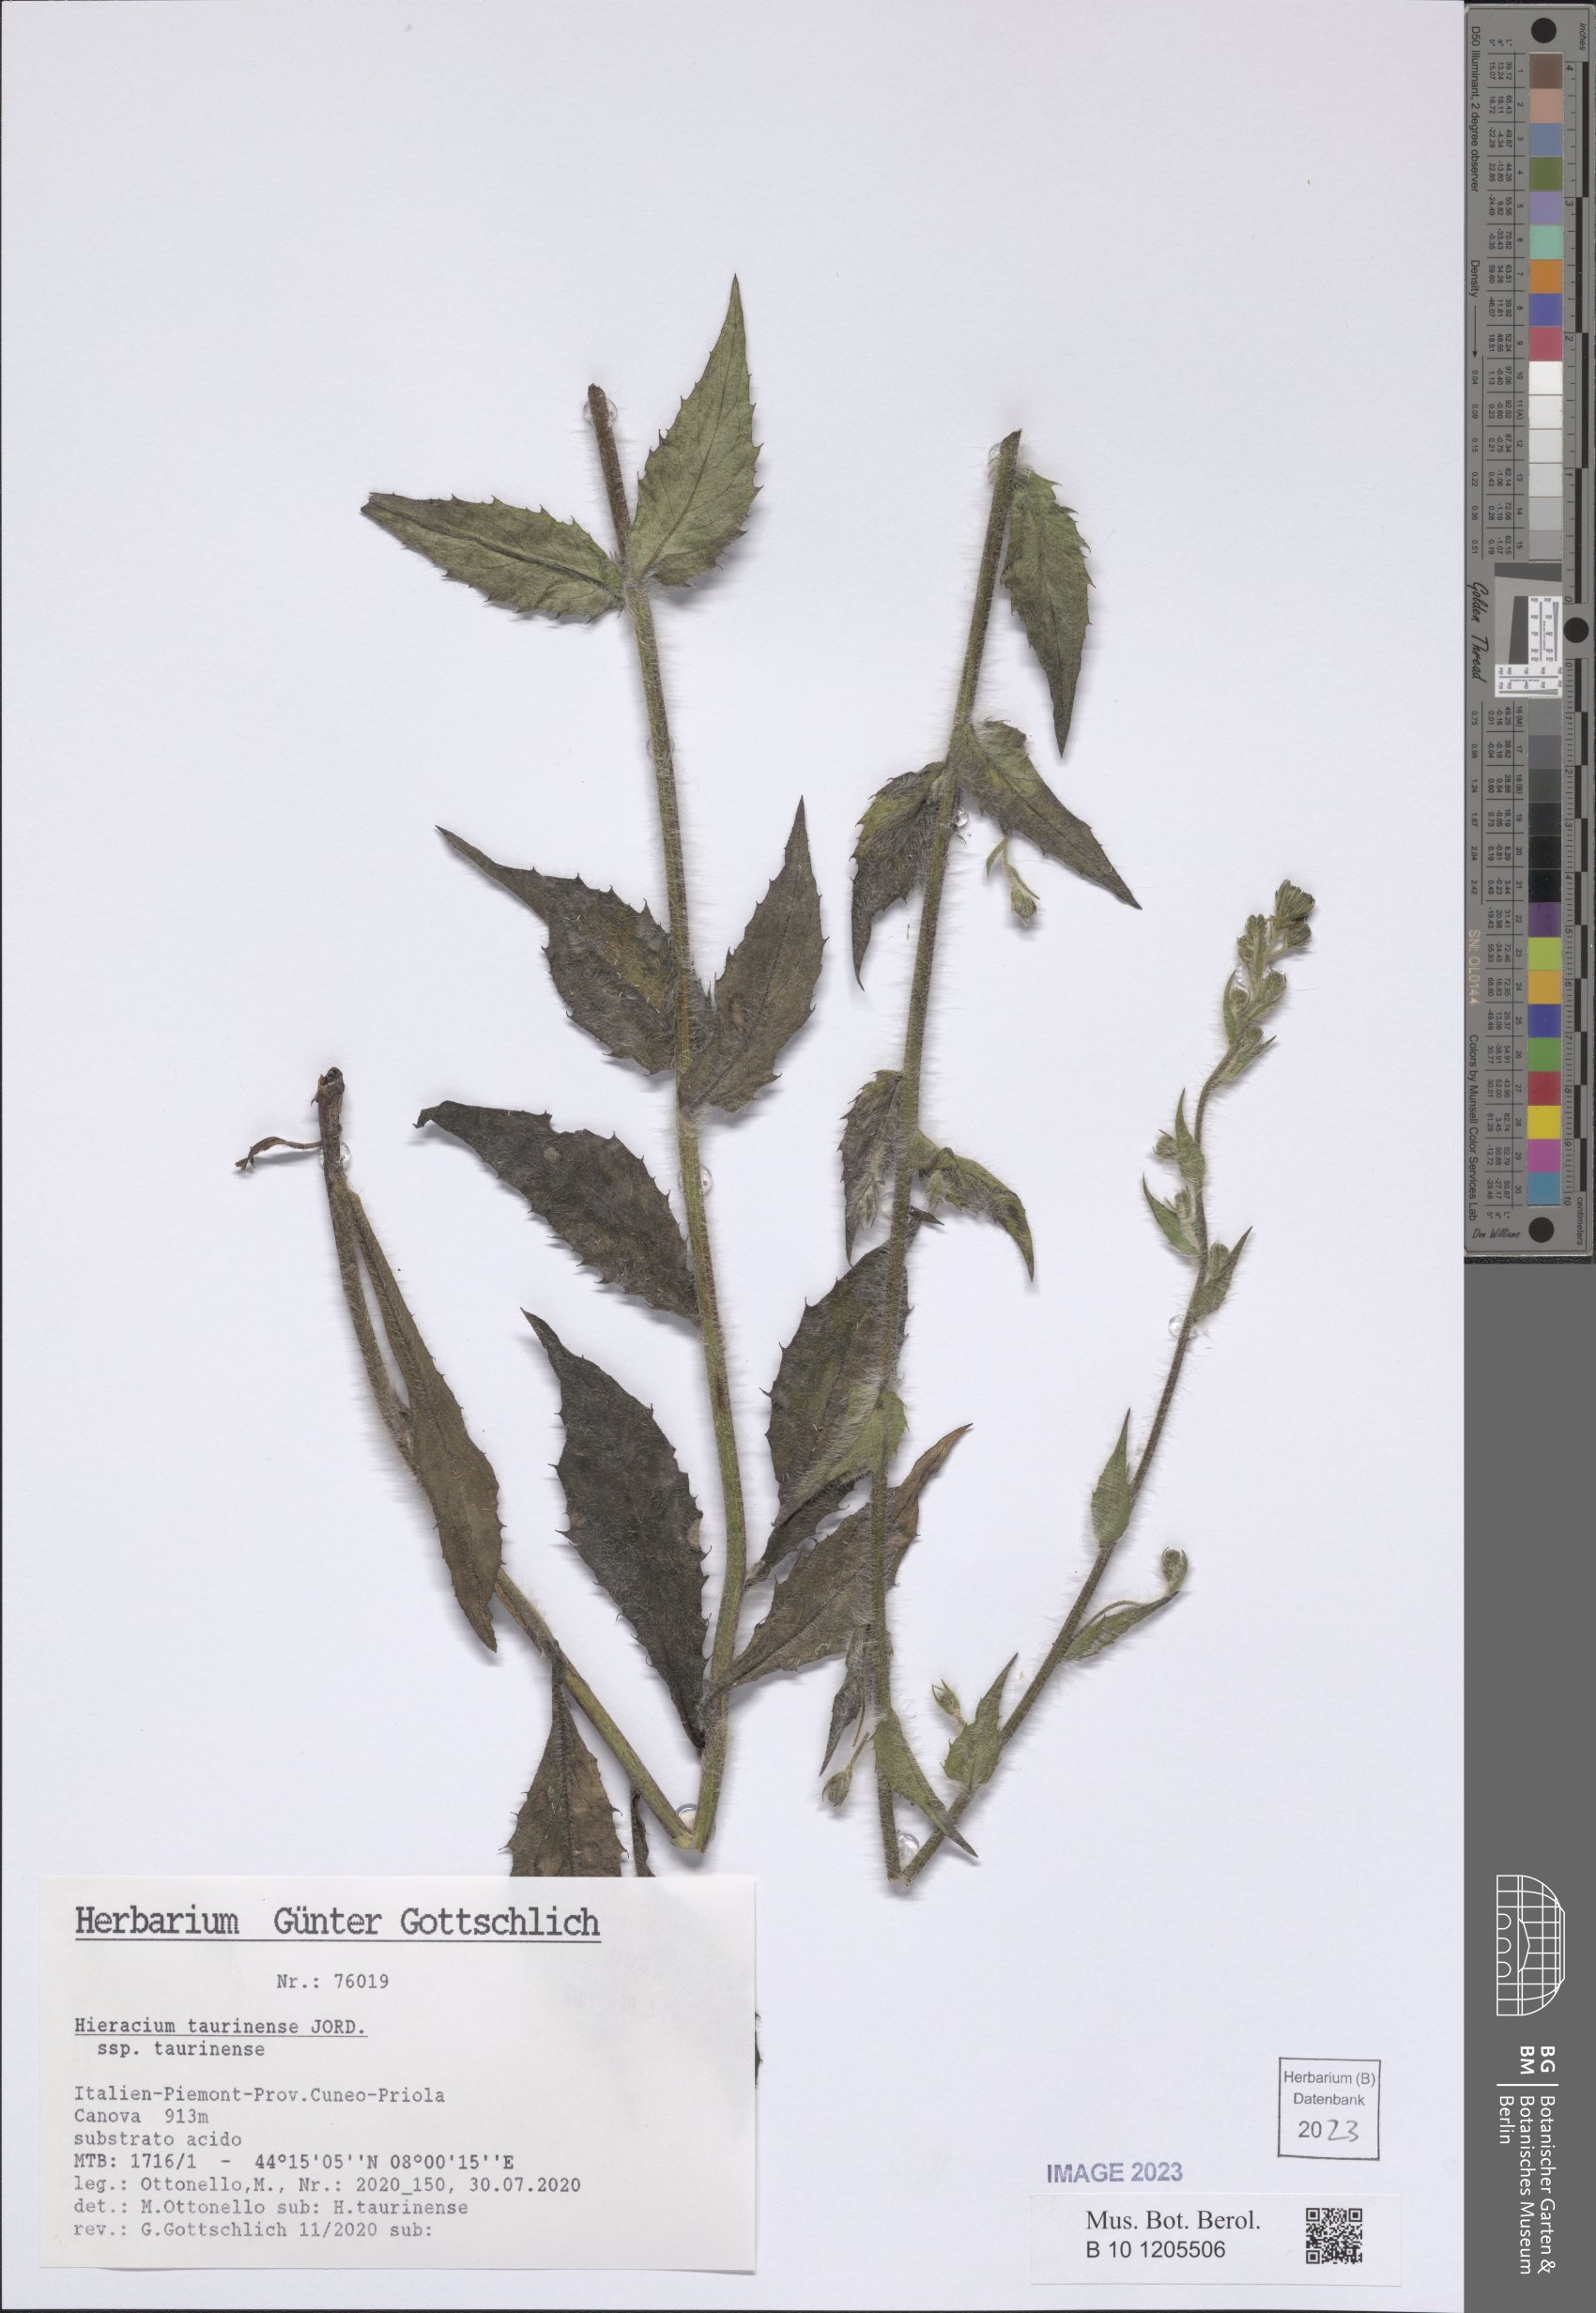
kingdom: Plantae
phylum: Tracheophyta
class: Magnoliopsida
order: Asterales
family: Asteraceae
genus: Hieracium
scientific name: Hieracium taurinense
